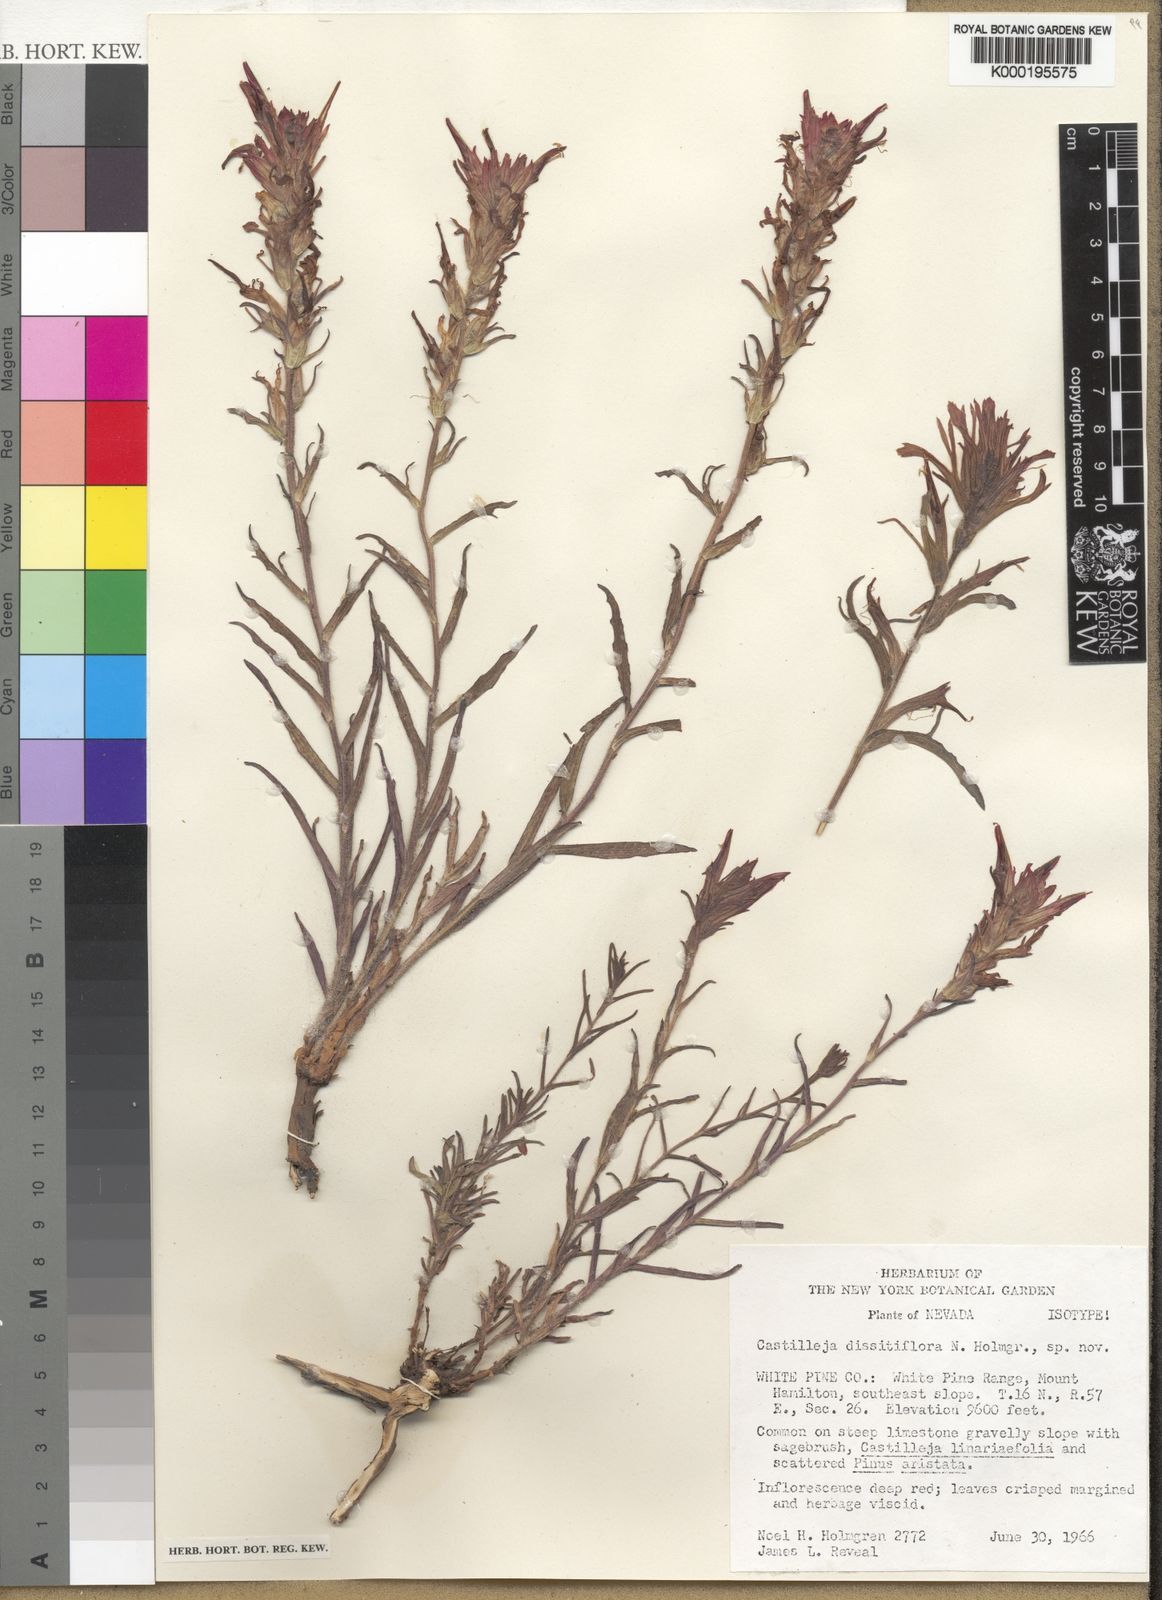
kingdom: Plantae
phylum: Tracheophyta
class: Magnoliopsida
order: Lamiales
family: Orobanchaceae
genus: Castilleja
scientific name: Castilleja dissitiflora
